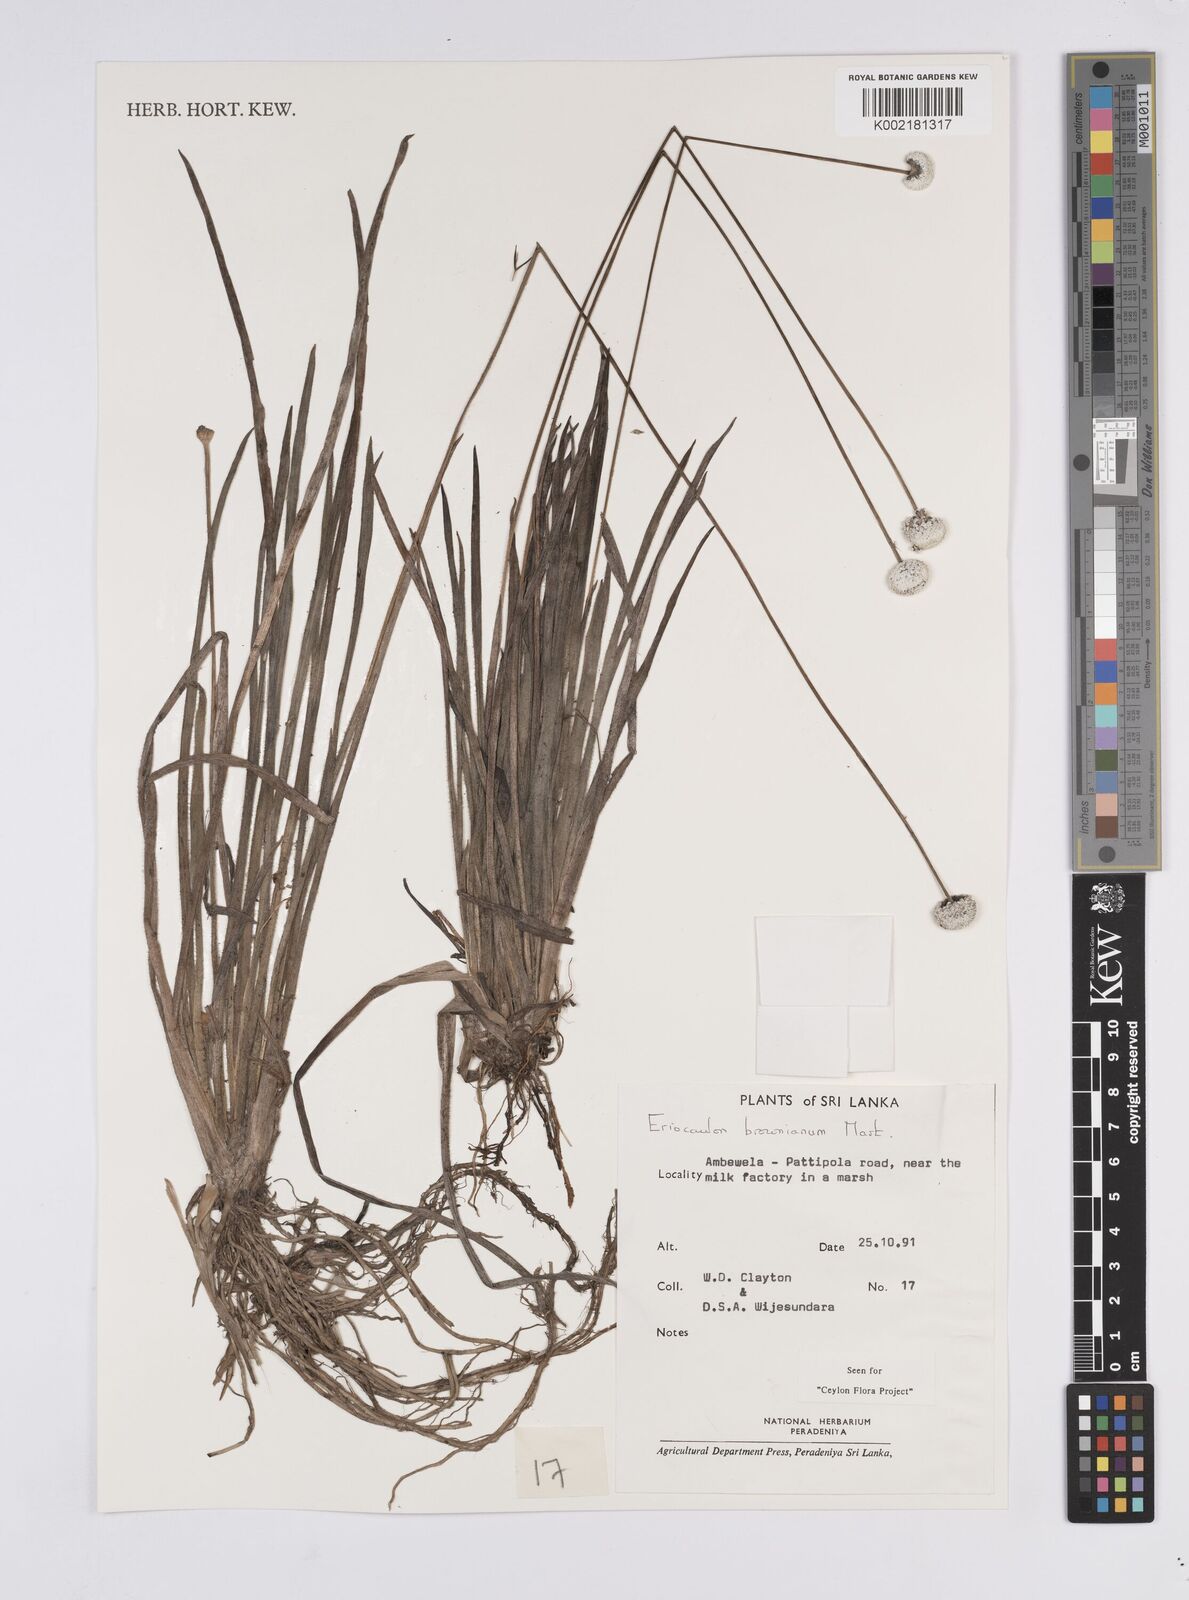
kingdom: Plantae
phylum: Tracheophyta
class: Liliopsida
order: Poales
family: Eriocaulaceae
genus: Eriocaulon
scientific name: Eriocaulon brownianum
